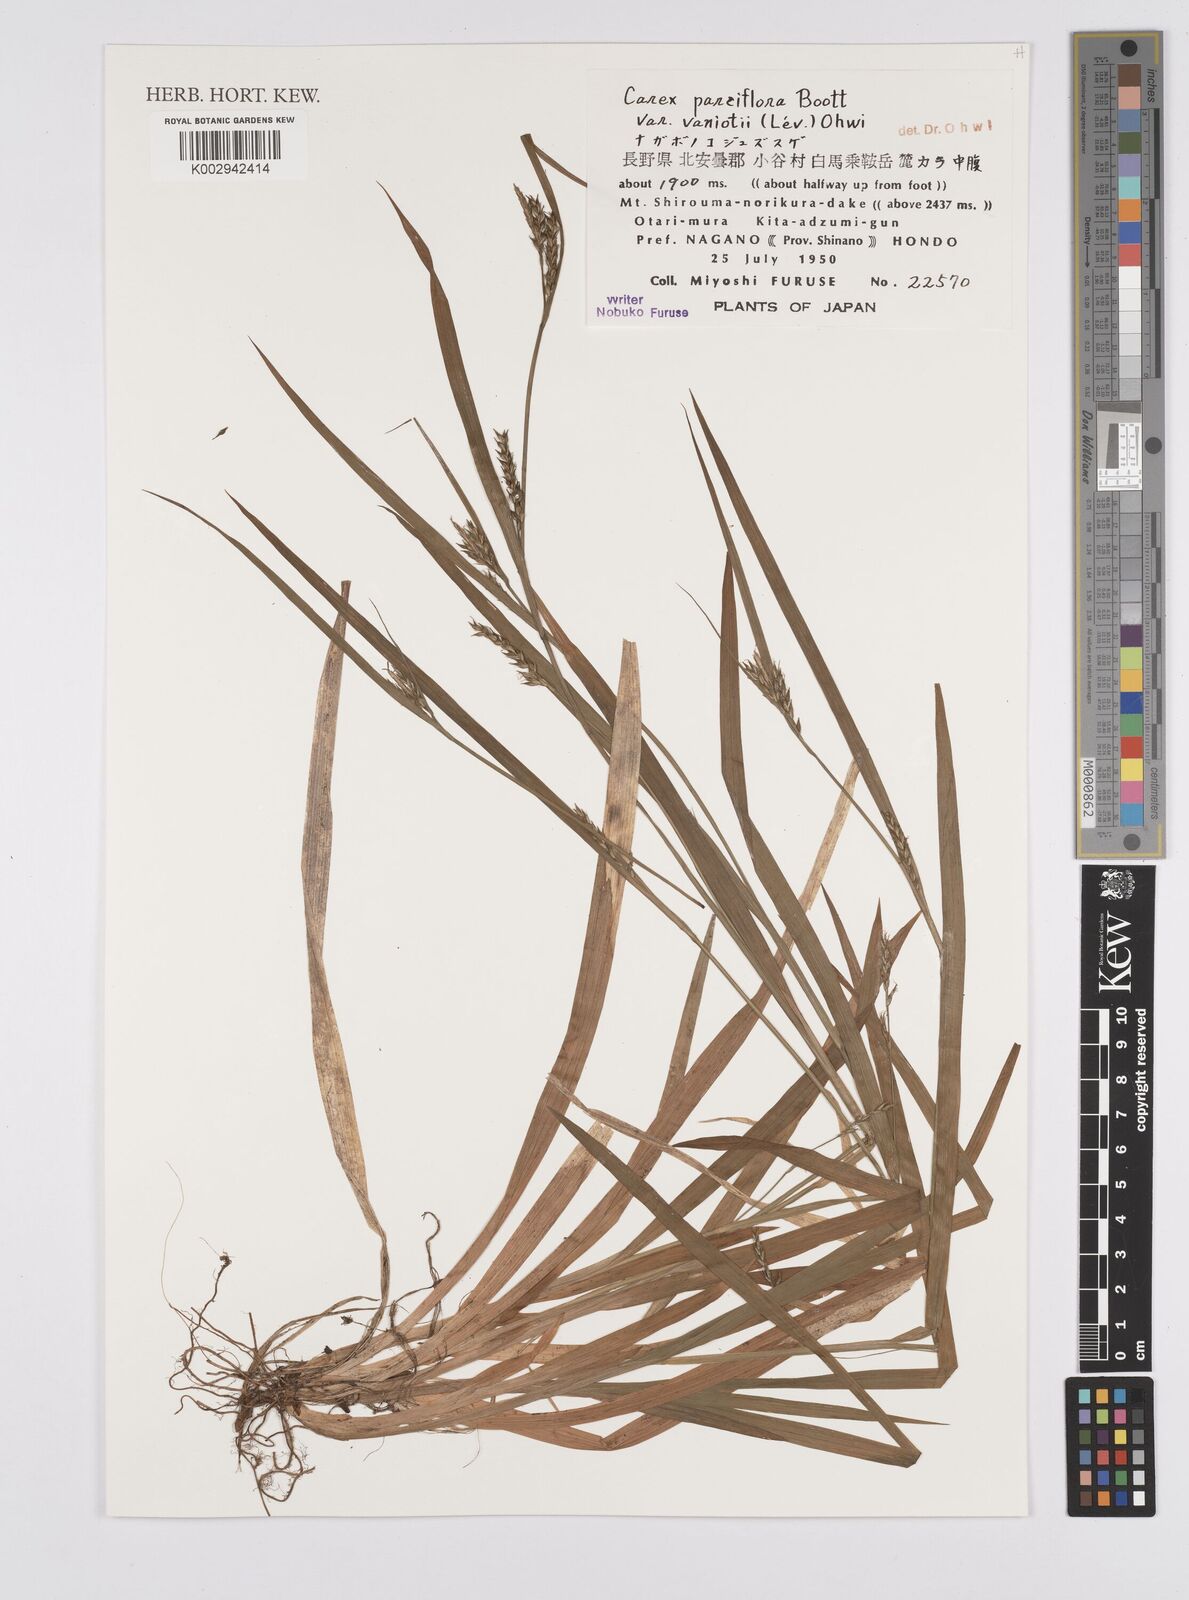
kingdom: Plantae
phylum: Tracheophyta
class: Liliopsida
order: Poales
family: Cyperaceae
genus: Carex
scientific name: Carex parciflora
